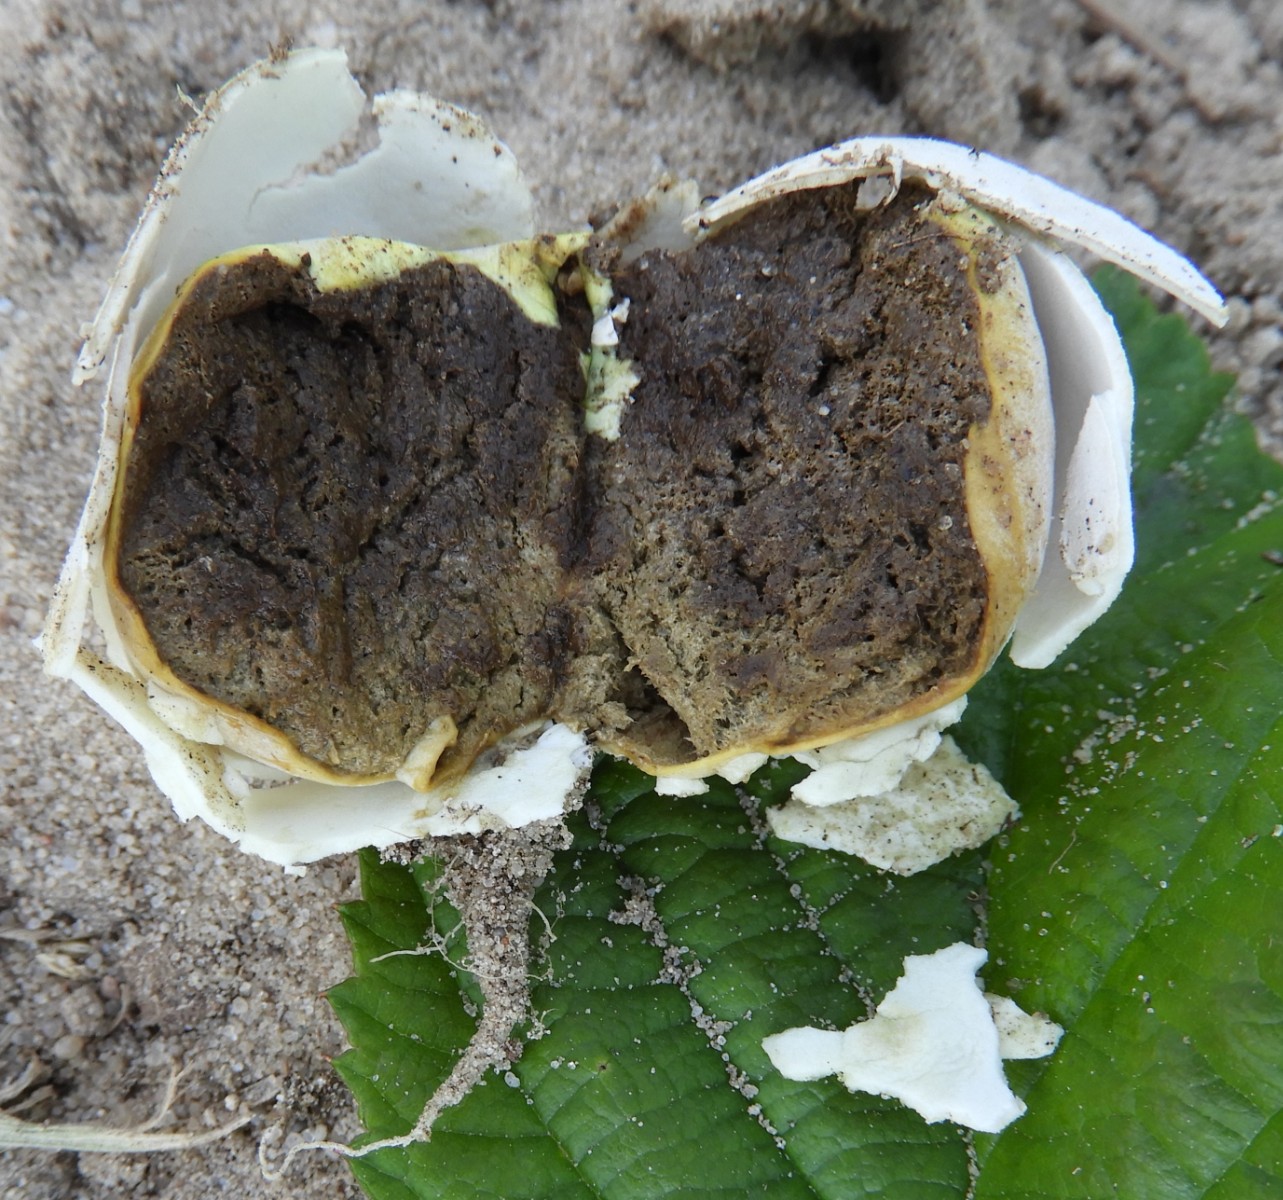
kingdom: Fungi
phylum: Basidiomycota
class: Agaricomycetes
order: Agaricales
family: Lycoperdaceae
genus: Bovista
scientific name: Bovista
